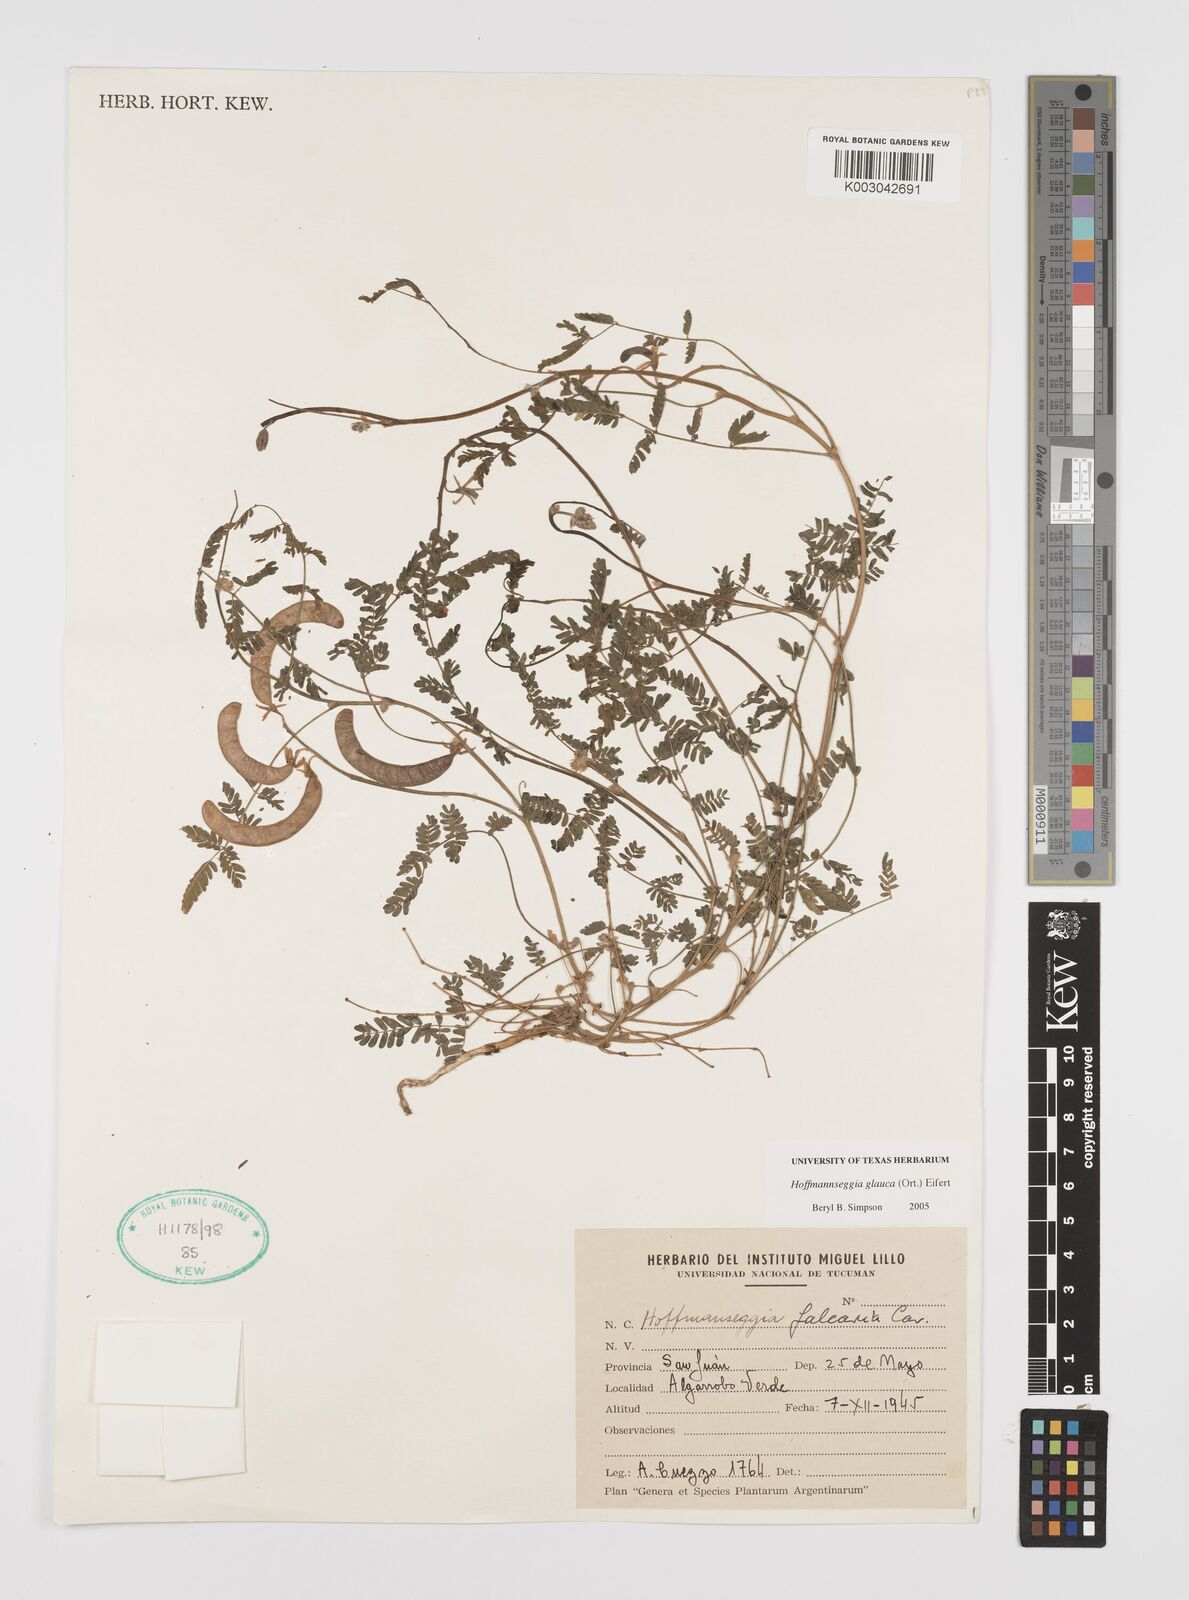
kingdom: Plantae
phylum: Tracheophyta
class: Magnoliopsida
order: Fabales
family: Fabaceae
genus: Hoffmannseggia
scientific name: Hoffmannseggia glauca
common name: Pignut
